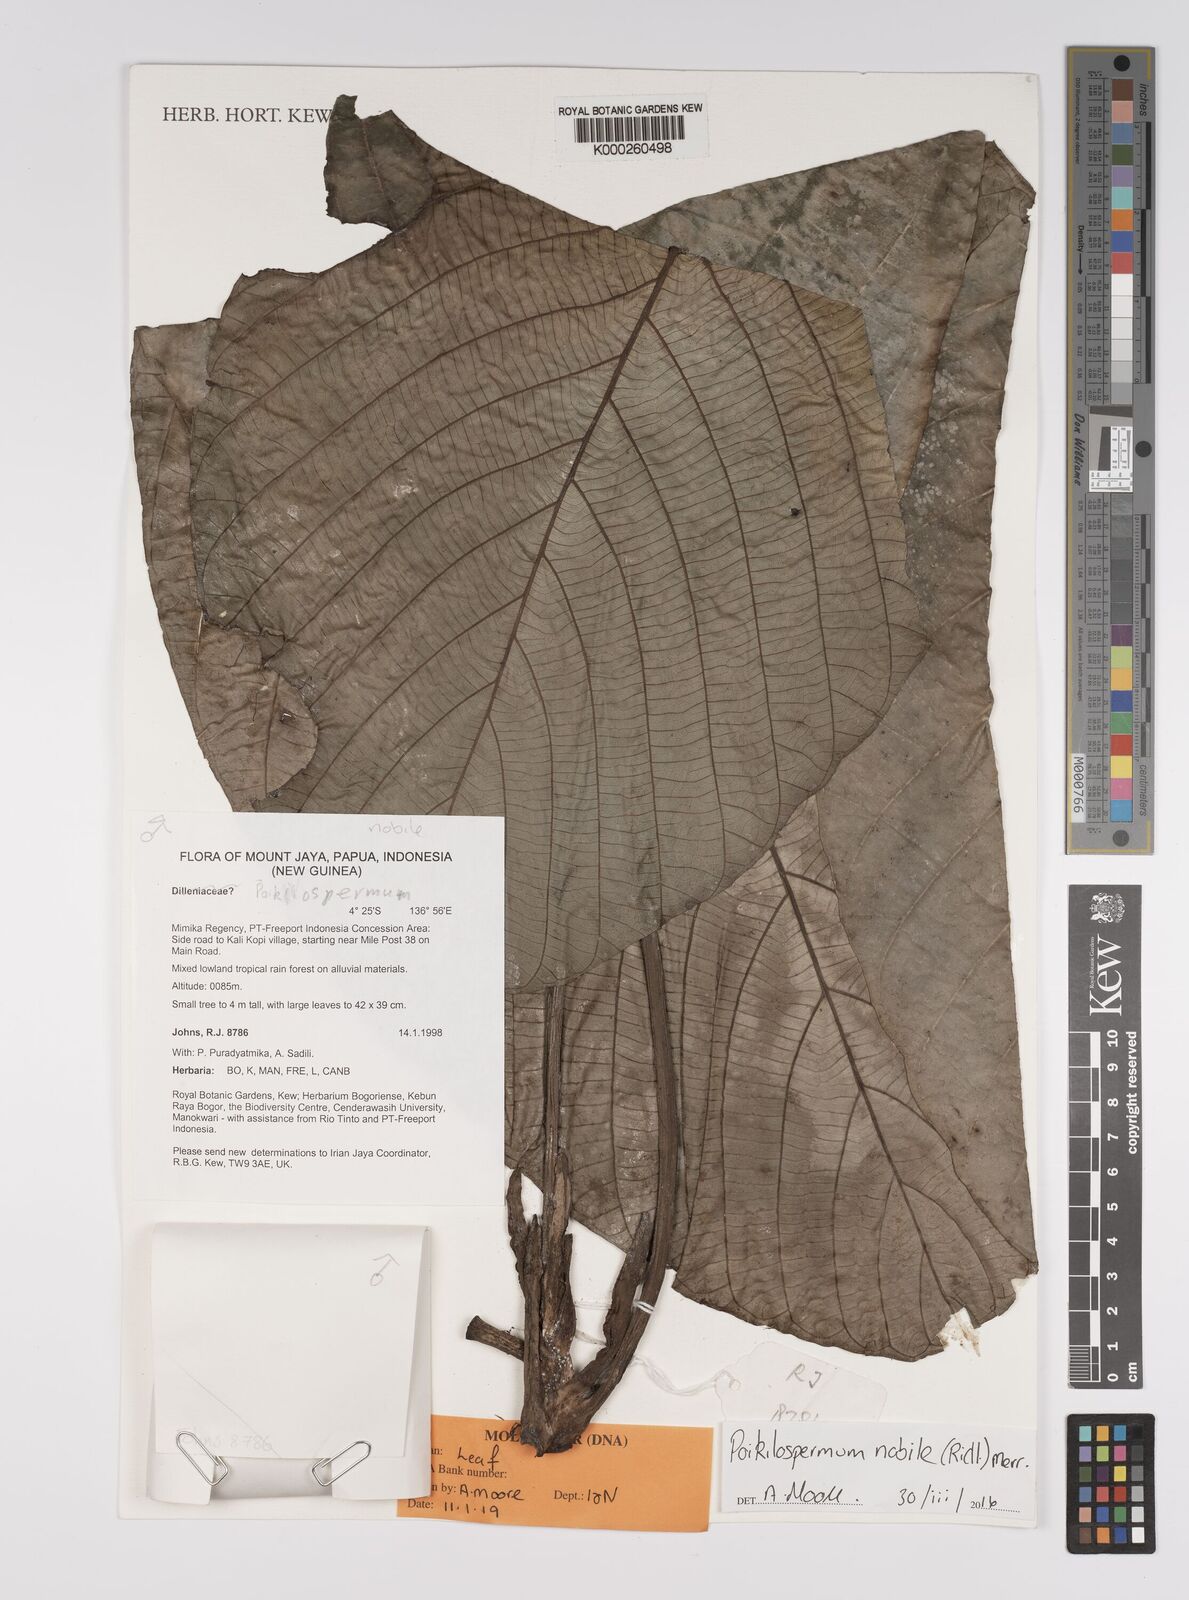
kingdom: Plantae
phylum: Tracheophyta
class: Magnoliopsida
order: Rosales
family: Urticaceae
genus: Poikilospermum
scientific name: Poikilospermum nobile
